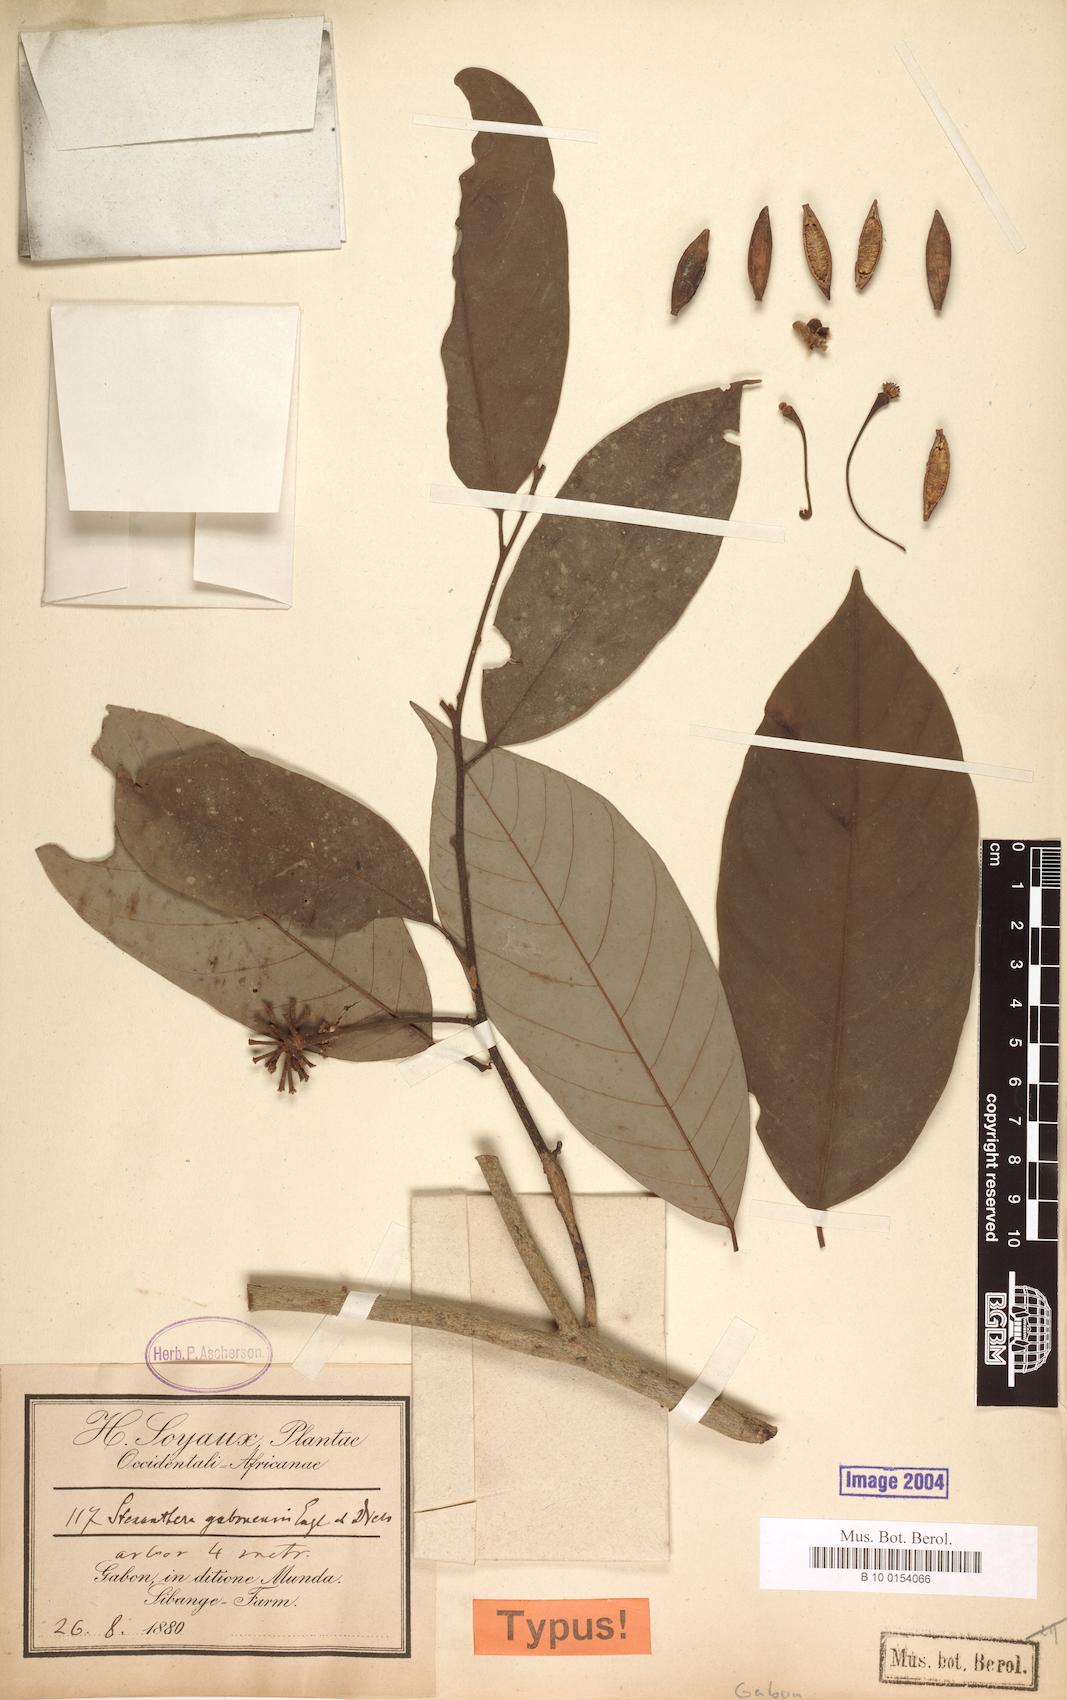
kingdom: Plantae
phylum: Tracheophyta
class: Magnoliopsida
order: Magnoliales
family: Annonaceae
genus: Neostenanthera
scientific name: Neostenanthera gabonensis
